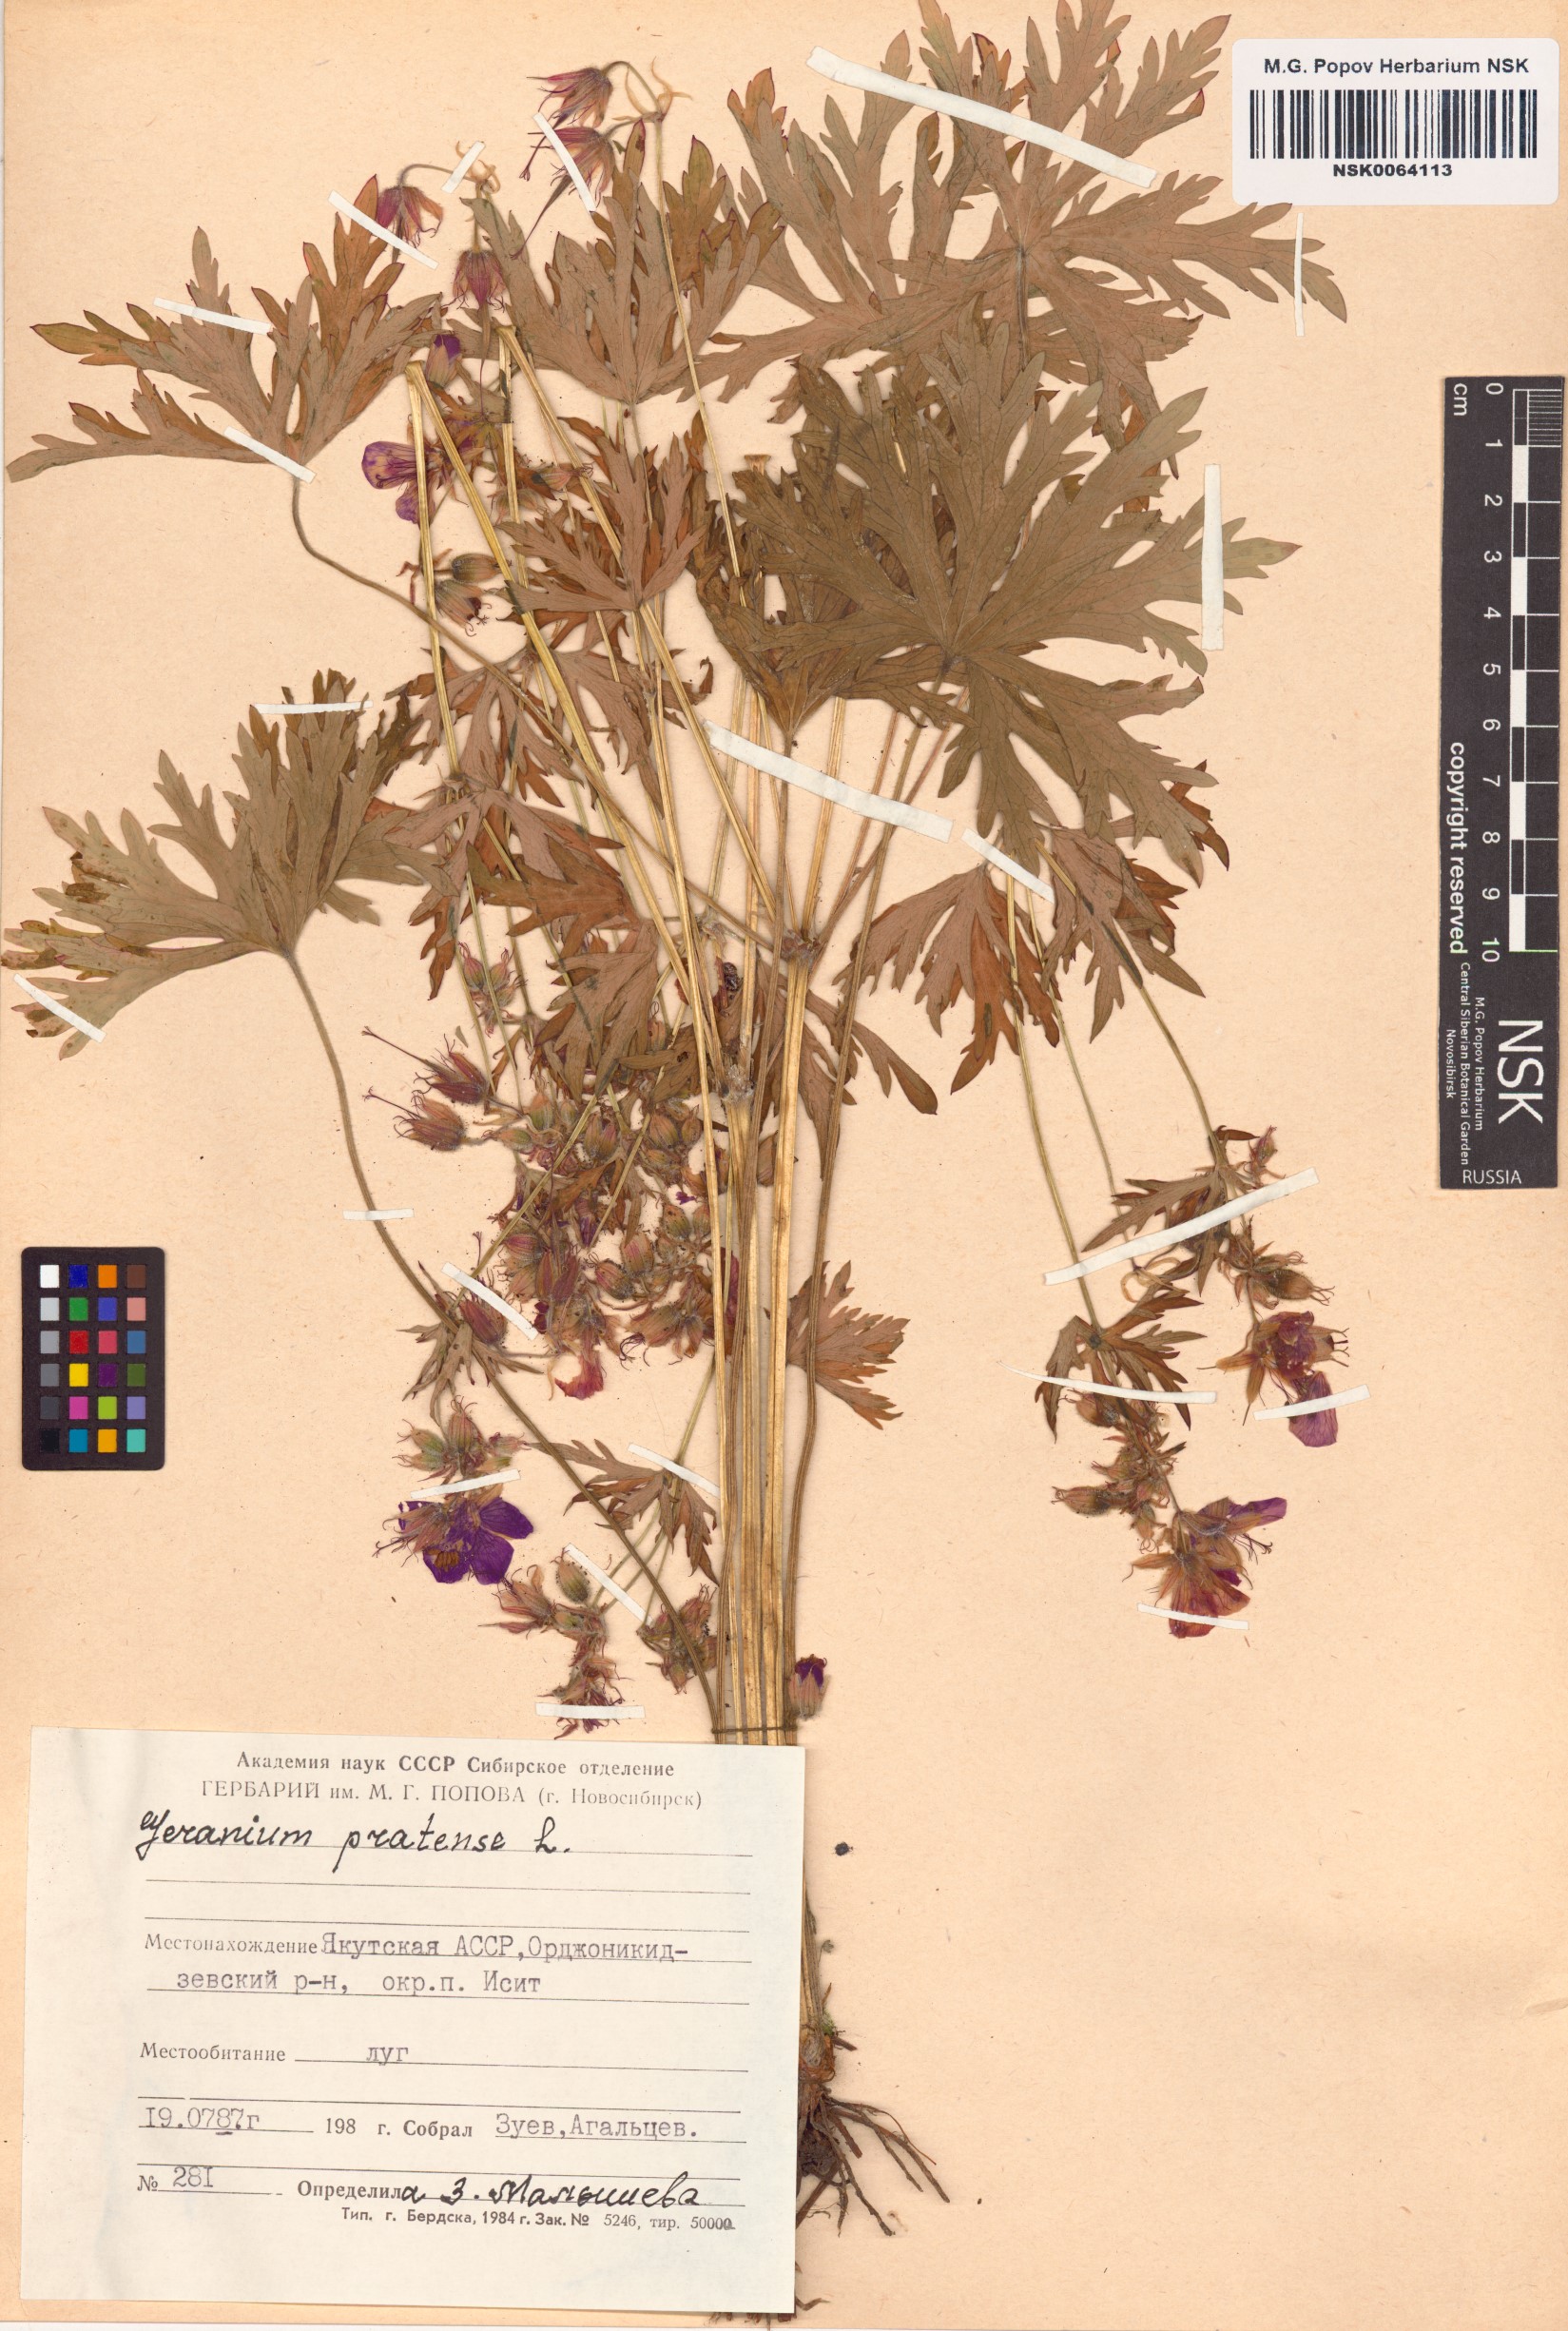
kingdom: Plantae
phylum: Tracheophyta
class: Magnoliopsida
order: Geraniales
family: Geraniaceae
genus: Geranium
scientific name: Geranium pratense
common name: Meadow crane's-bill
